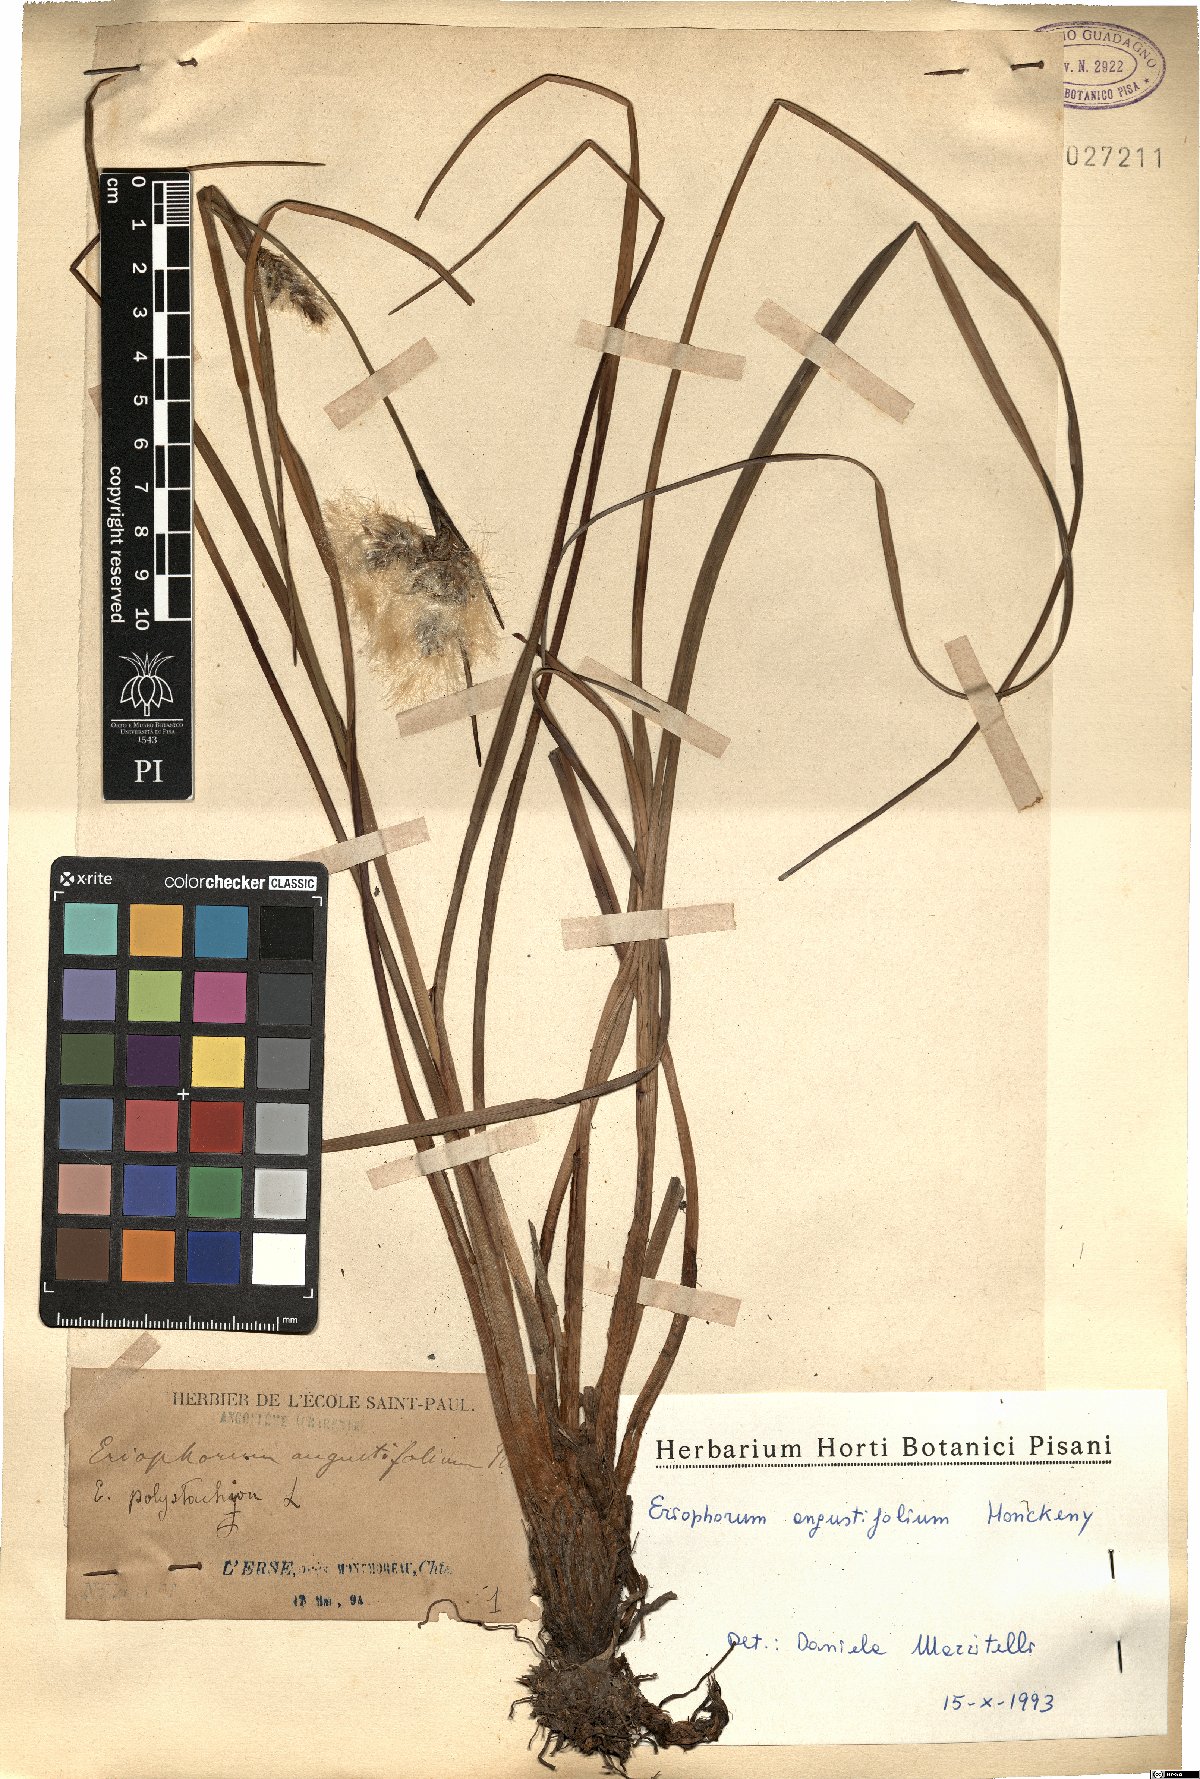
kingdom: Plantae
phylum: Tracheophyta
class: Liliopsida
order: Poales
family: Cyperaceae
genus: Eriophorum
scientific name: Eriophorum angustifolium
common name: Common cottongrass
